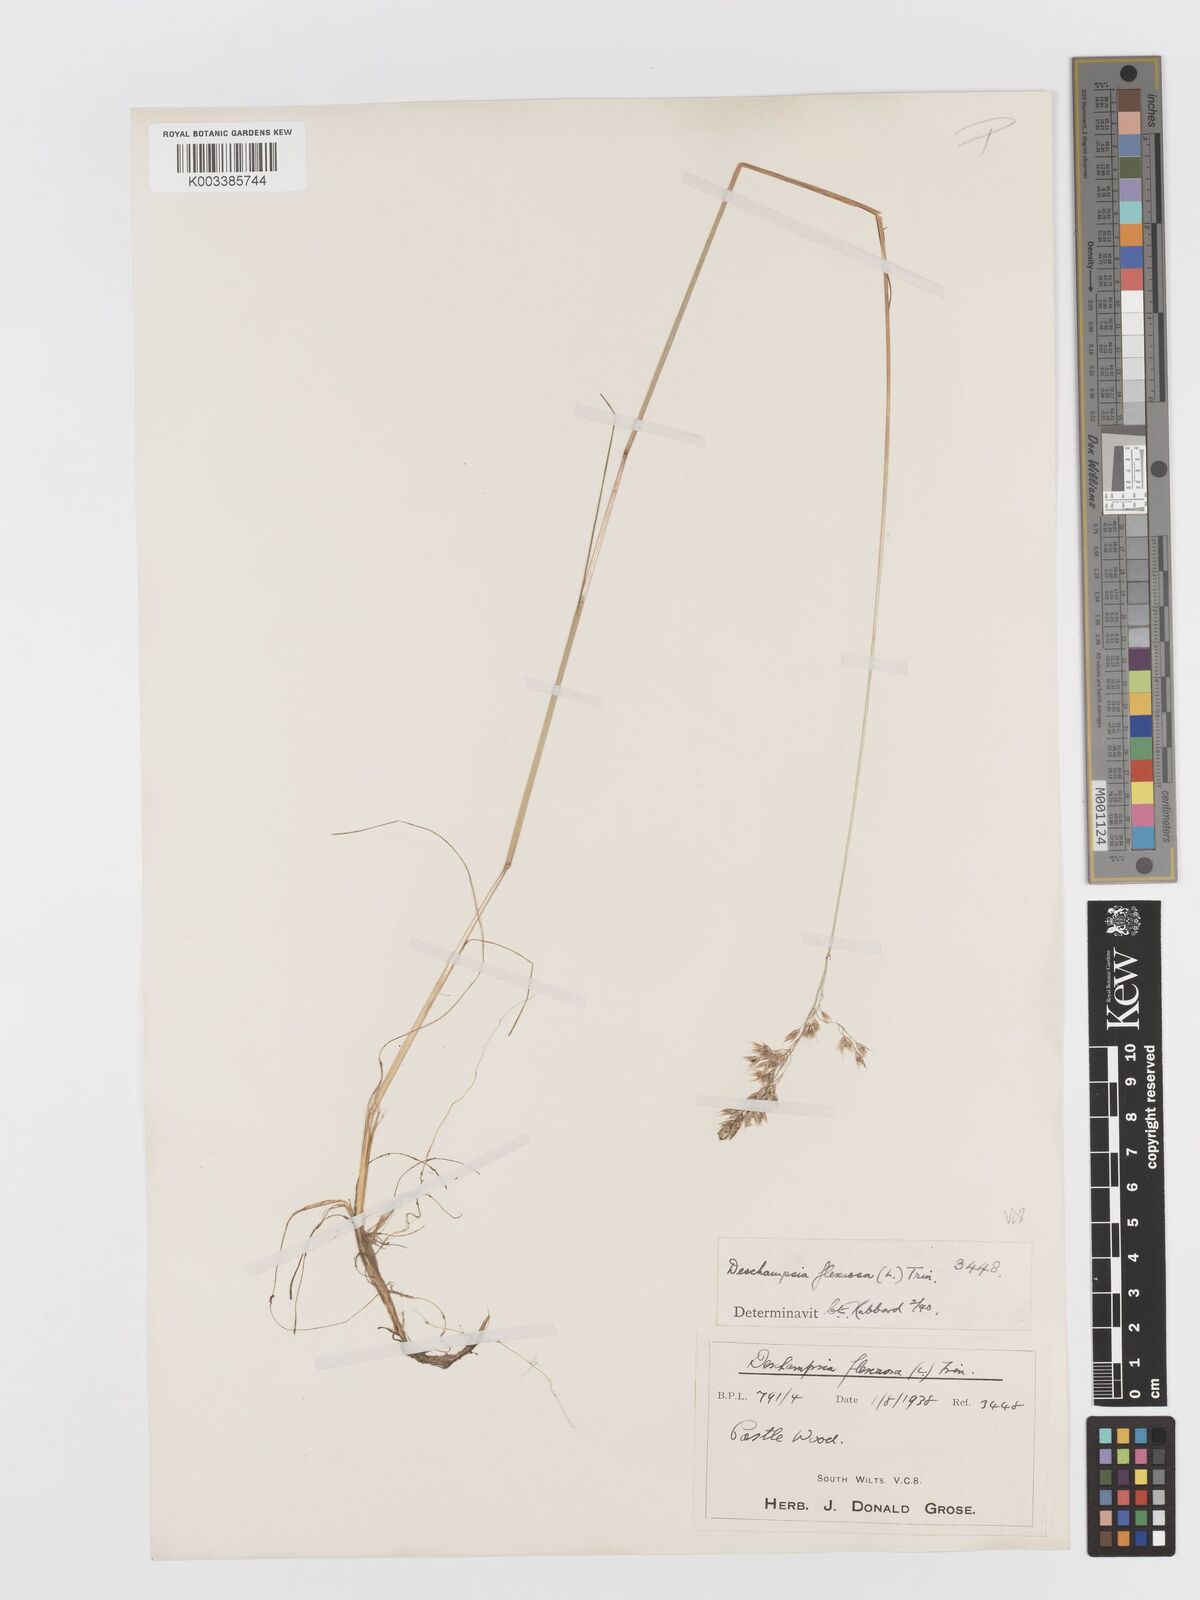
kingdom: Plantae
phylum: Tracheophyta
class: Liliopsida
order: Poales
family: Poaceae
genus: Avenella
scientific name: Avenella flexuosa
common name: Wavy hairgrass
